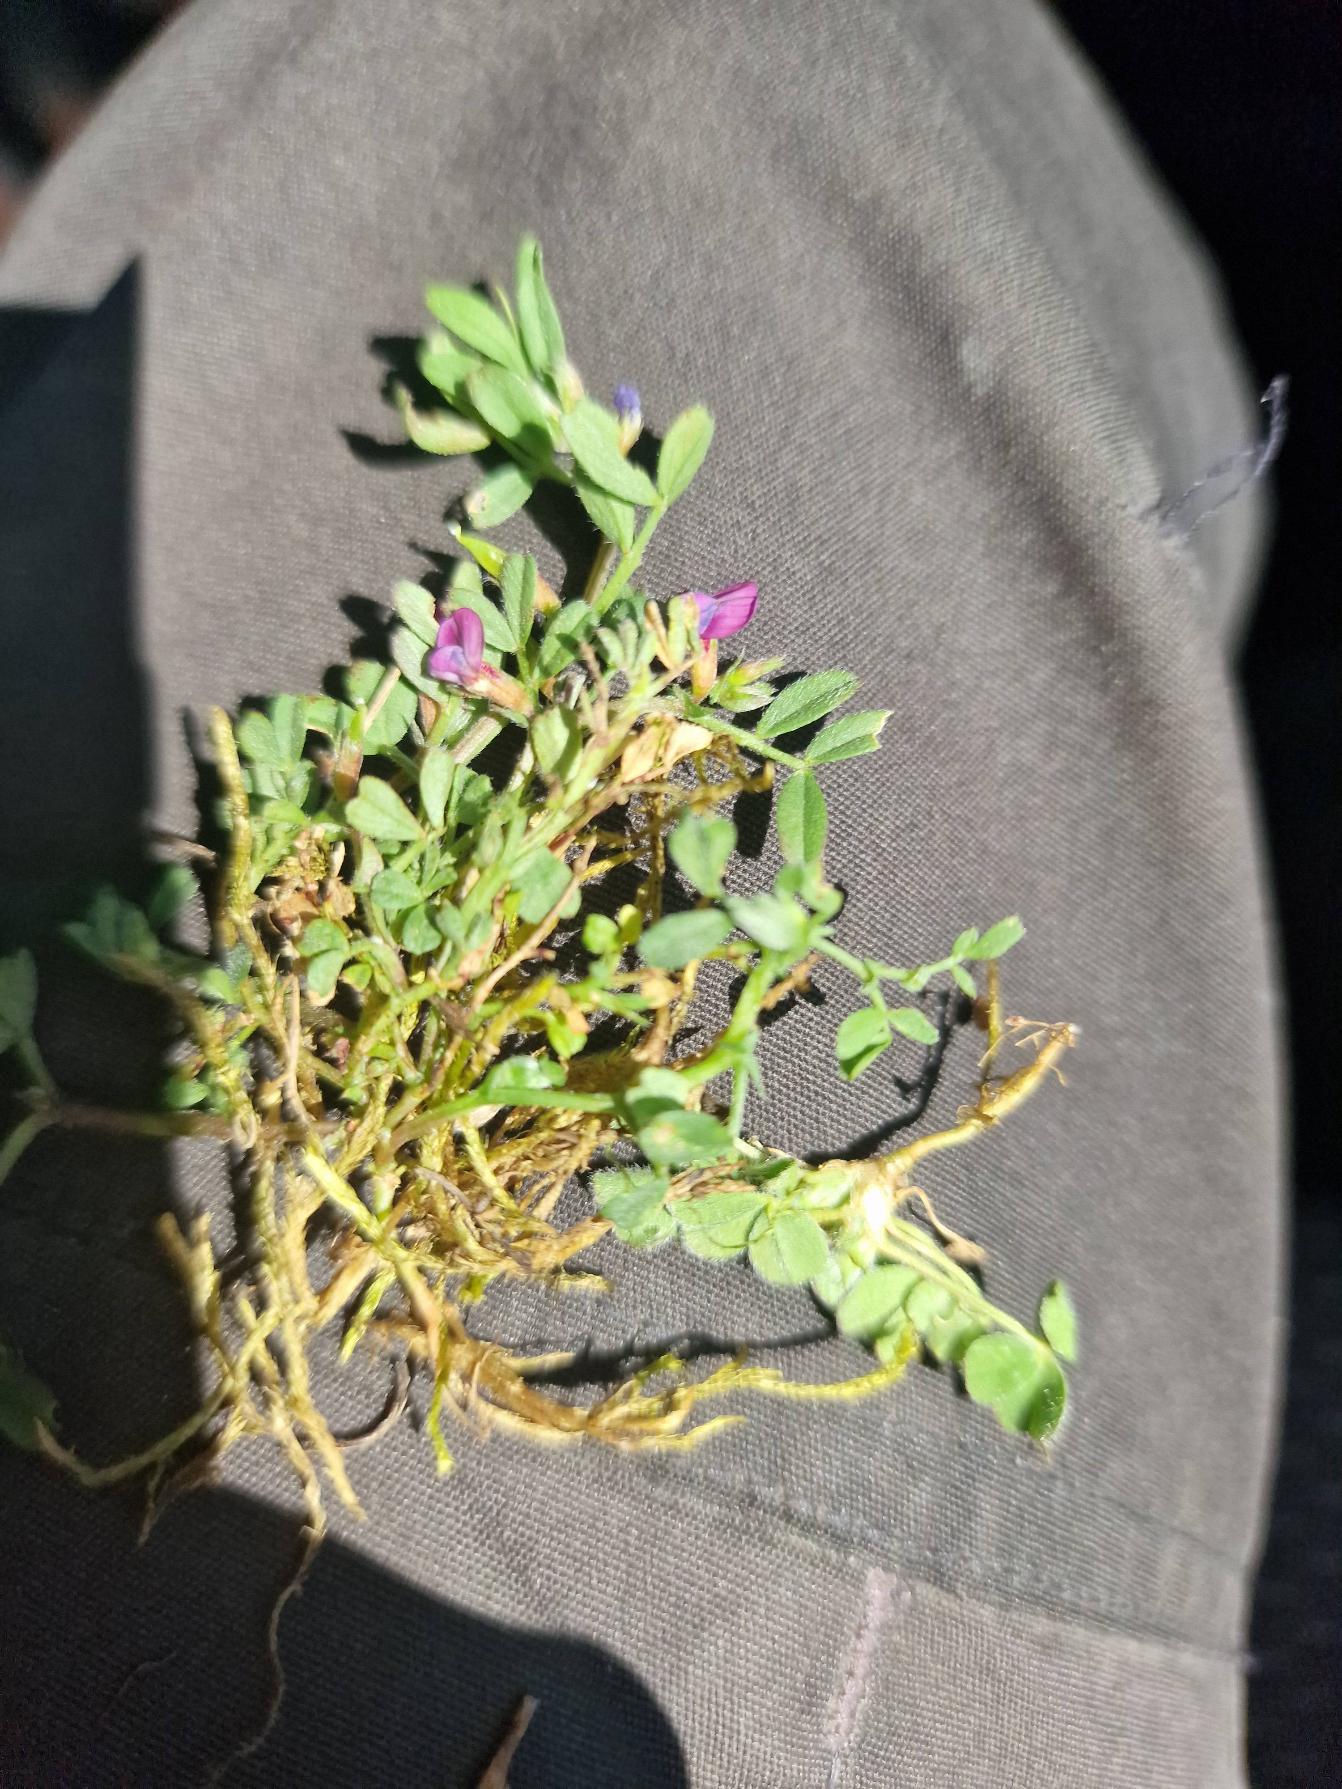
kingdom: Plantae
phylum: Tracheophyta
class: Magnoliopsida
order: Fabales
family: Fabaceae
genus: Vicia
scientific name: Vicia lathyroides
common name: Vår-vikke
